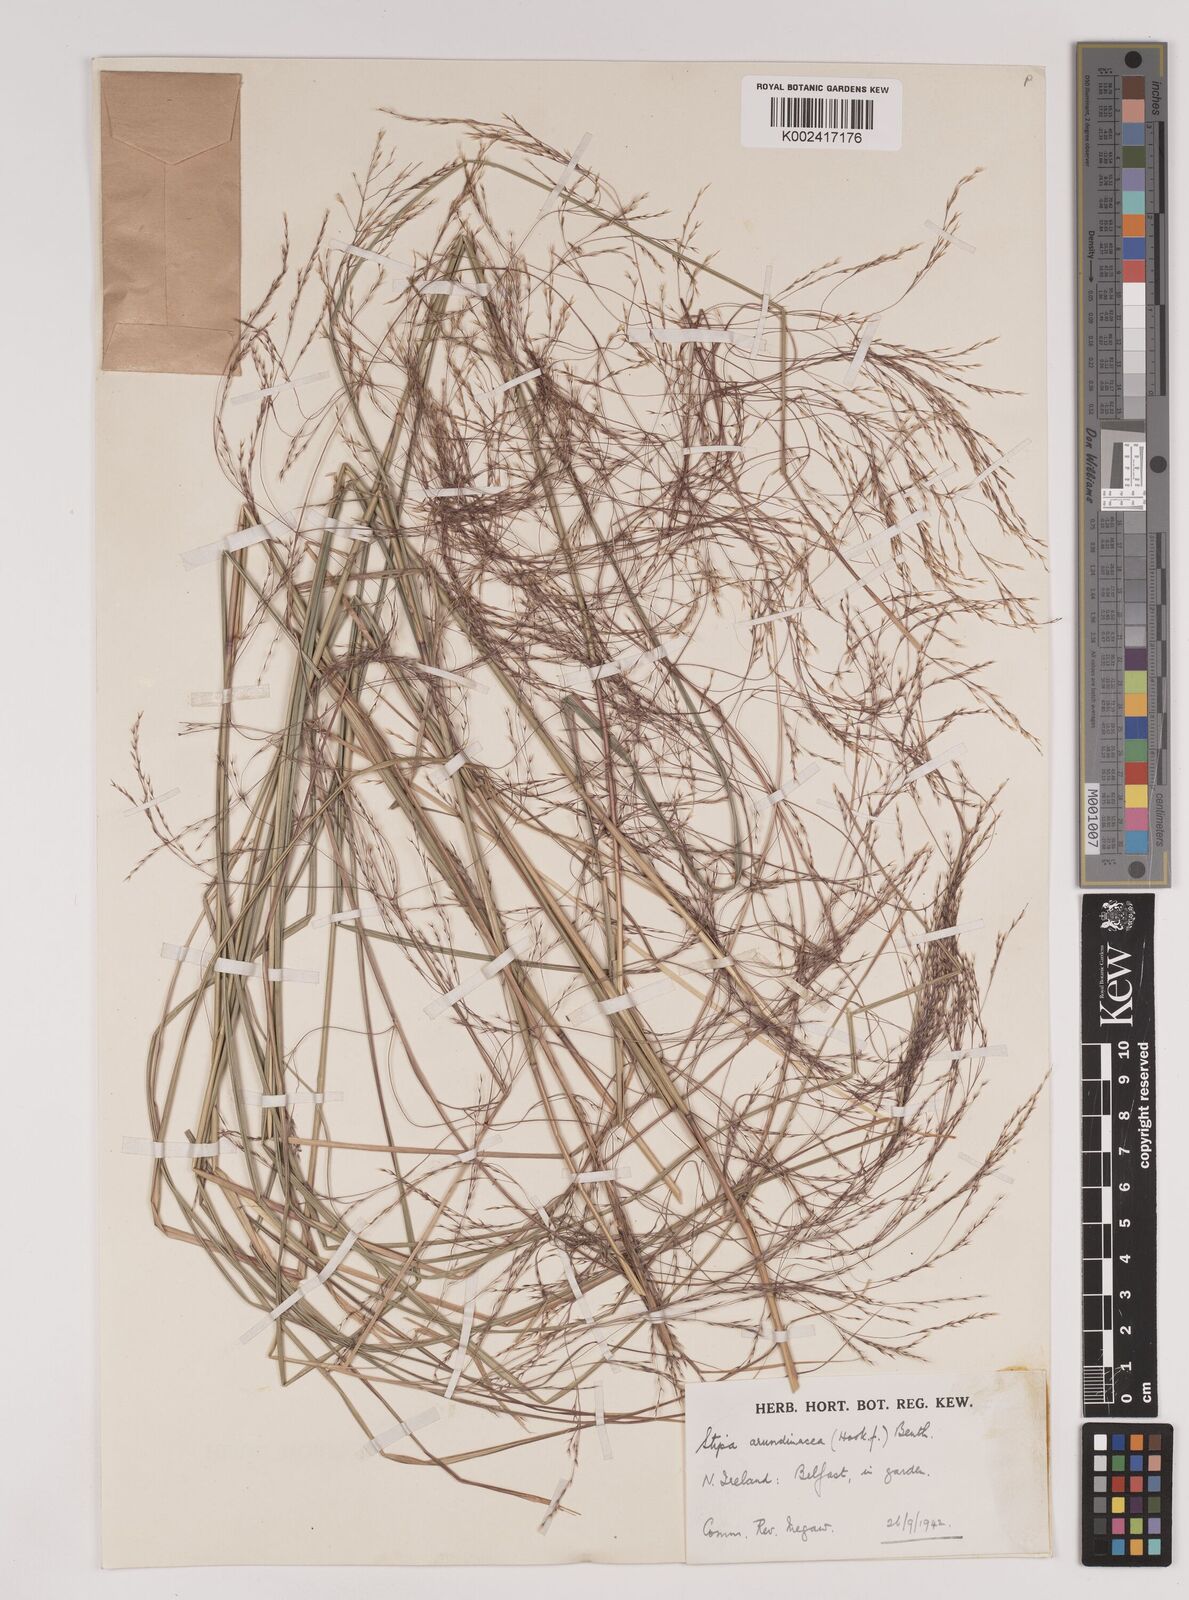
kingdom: Plantae
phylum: Tracheophyta
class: Liliopsida
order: Poales
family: Poaceae
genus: Stipa
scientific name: Stipa
